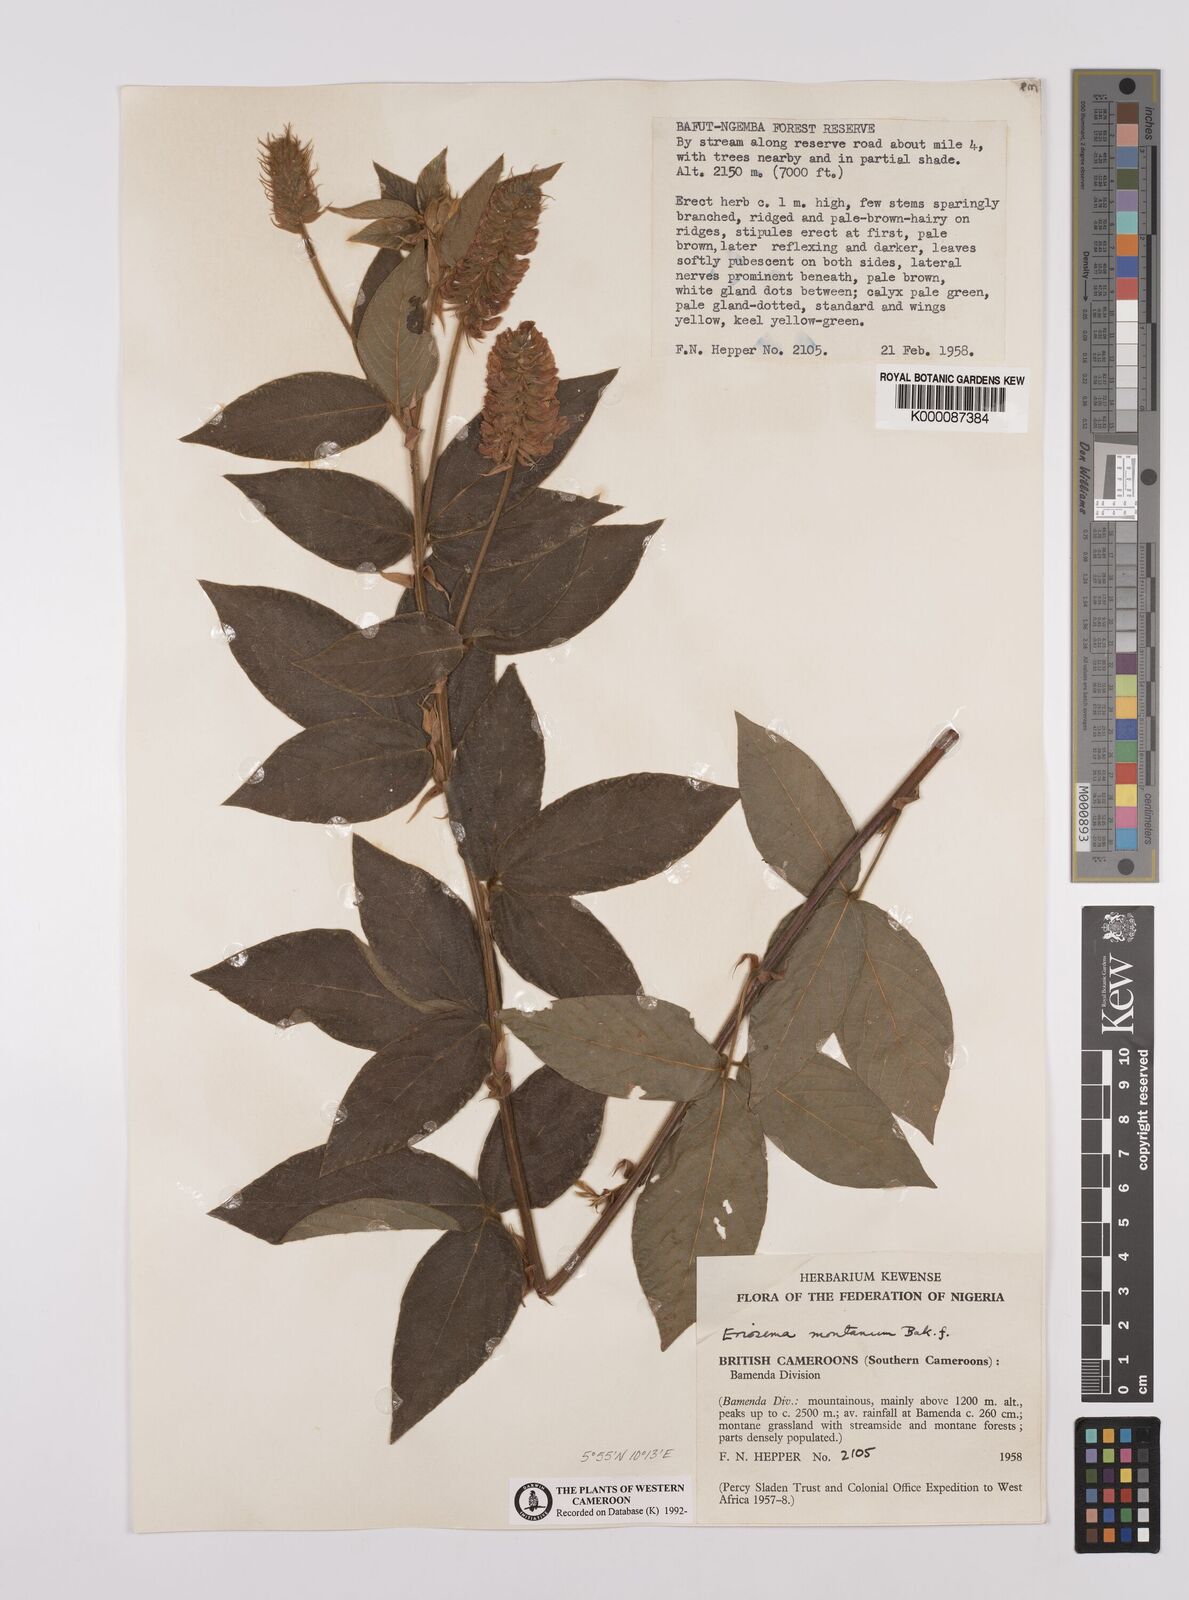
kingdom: Plantae
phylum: Tracheophyta
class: Magnoliopsida
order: Fabales
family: Fabaceae
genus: Eriosema
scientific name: Eriosema montanum
